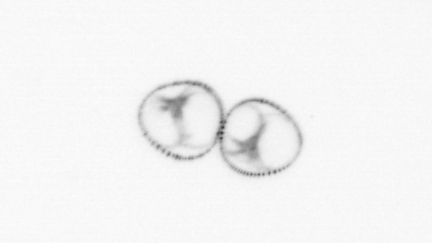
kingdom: Chromista
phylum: Myzozoa
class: Dinophyceae
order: Noctilucales
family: Noctilucaceae
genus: Noctiluca
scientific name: Noctiluca scintillans
